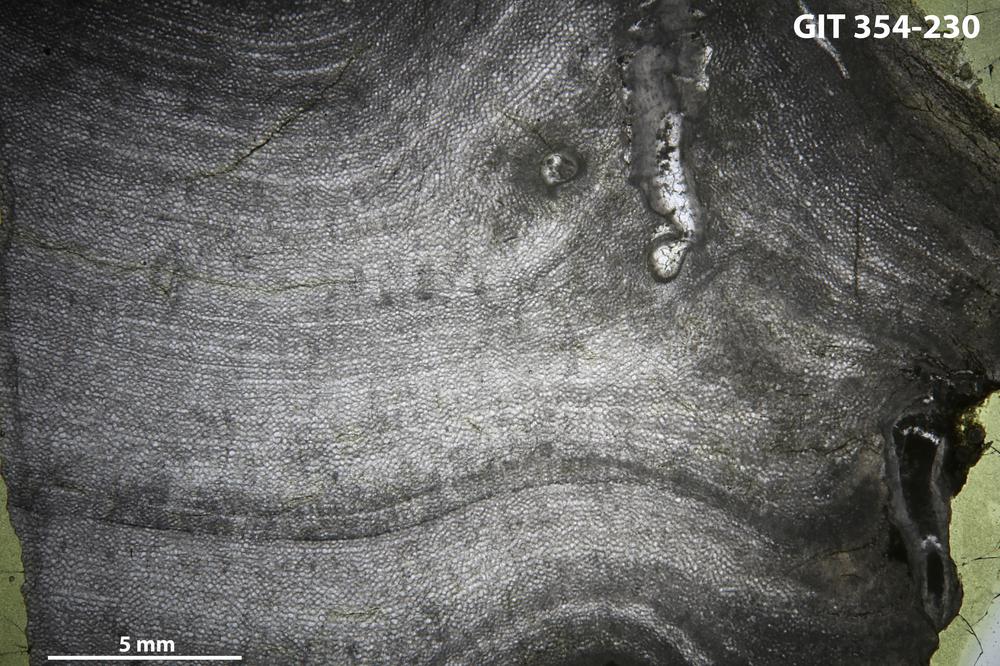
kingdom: Animalia
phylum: Porifera
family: Ecclimadictyidae
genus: Ecclimadictyon
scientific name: Ecclimadictyon Clathrodictyon microvesiculosum
